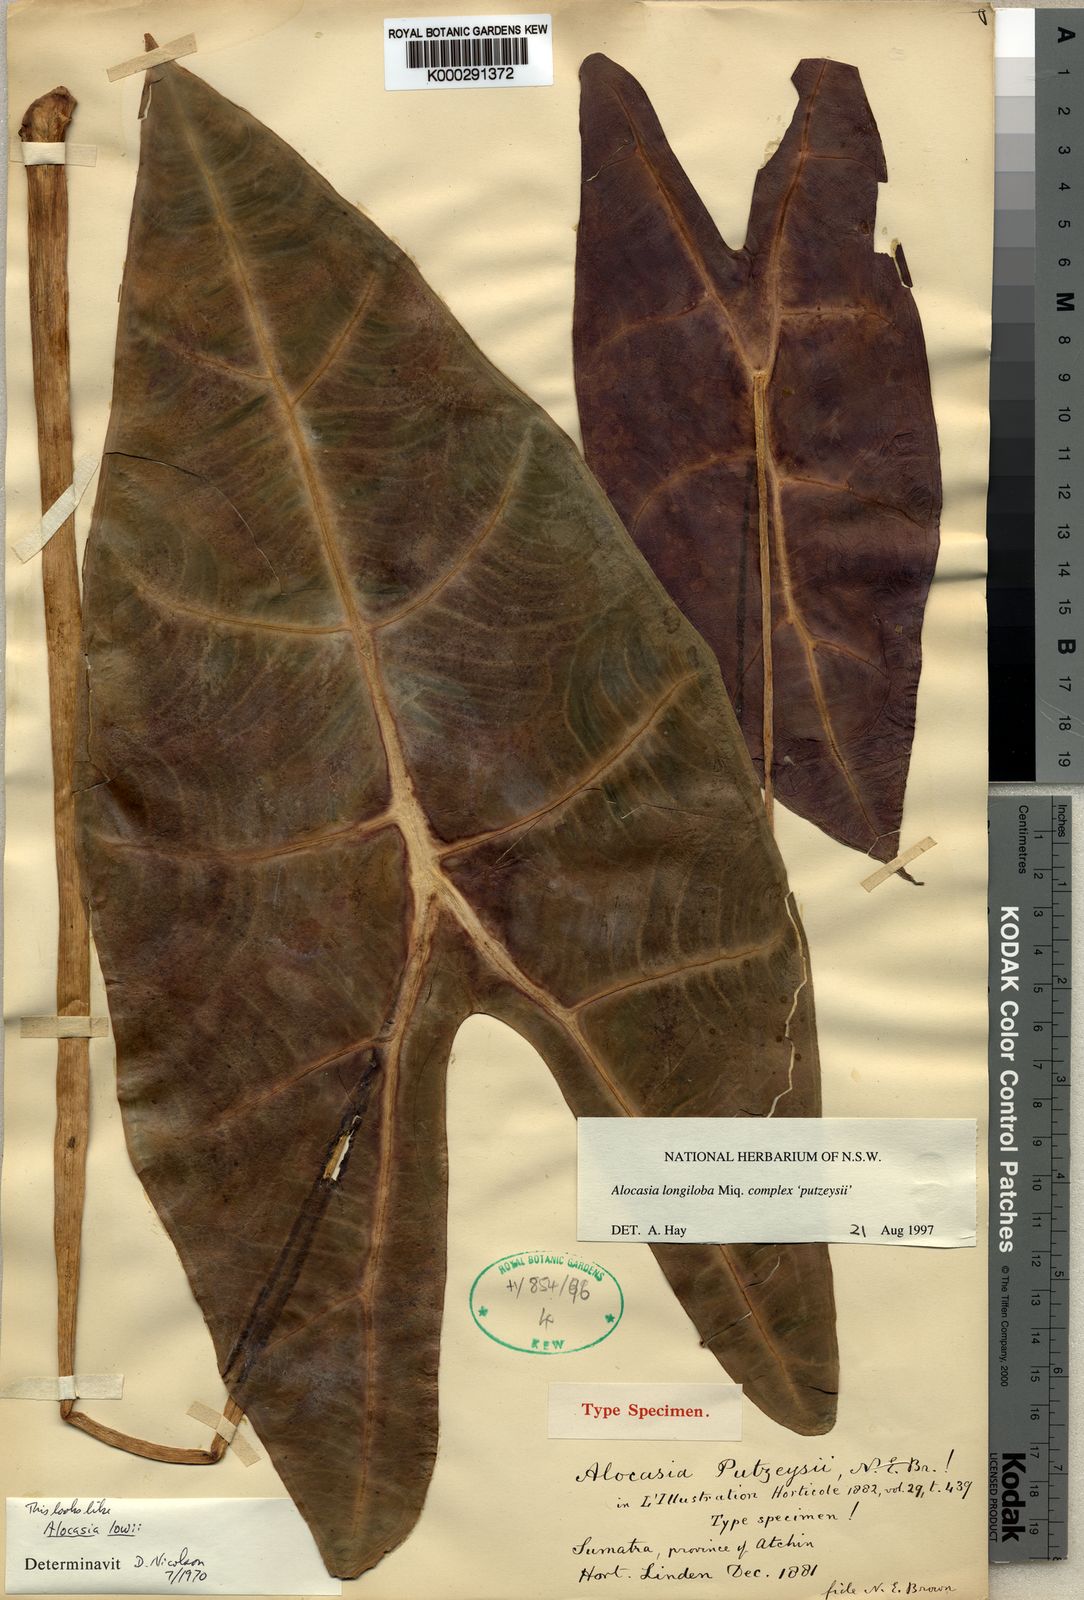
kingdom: Plantae
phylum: Tracheophyta
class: Liliopsida
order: Alismatales
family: Araceae
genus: Alocasia
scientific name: Alocasia longiloba
